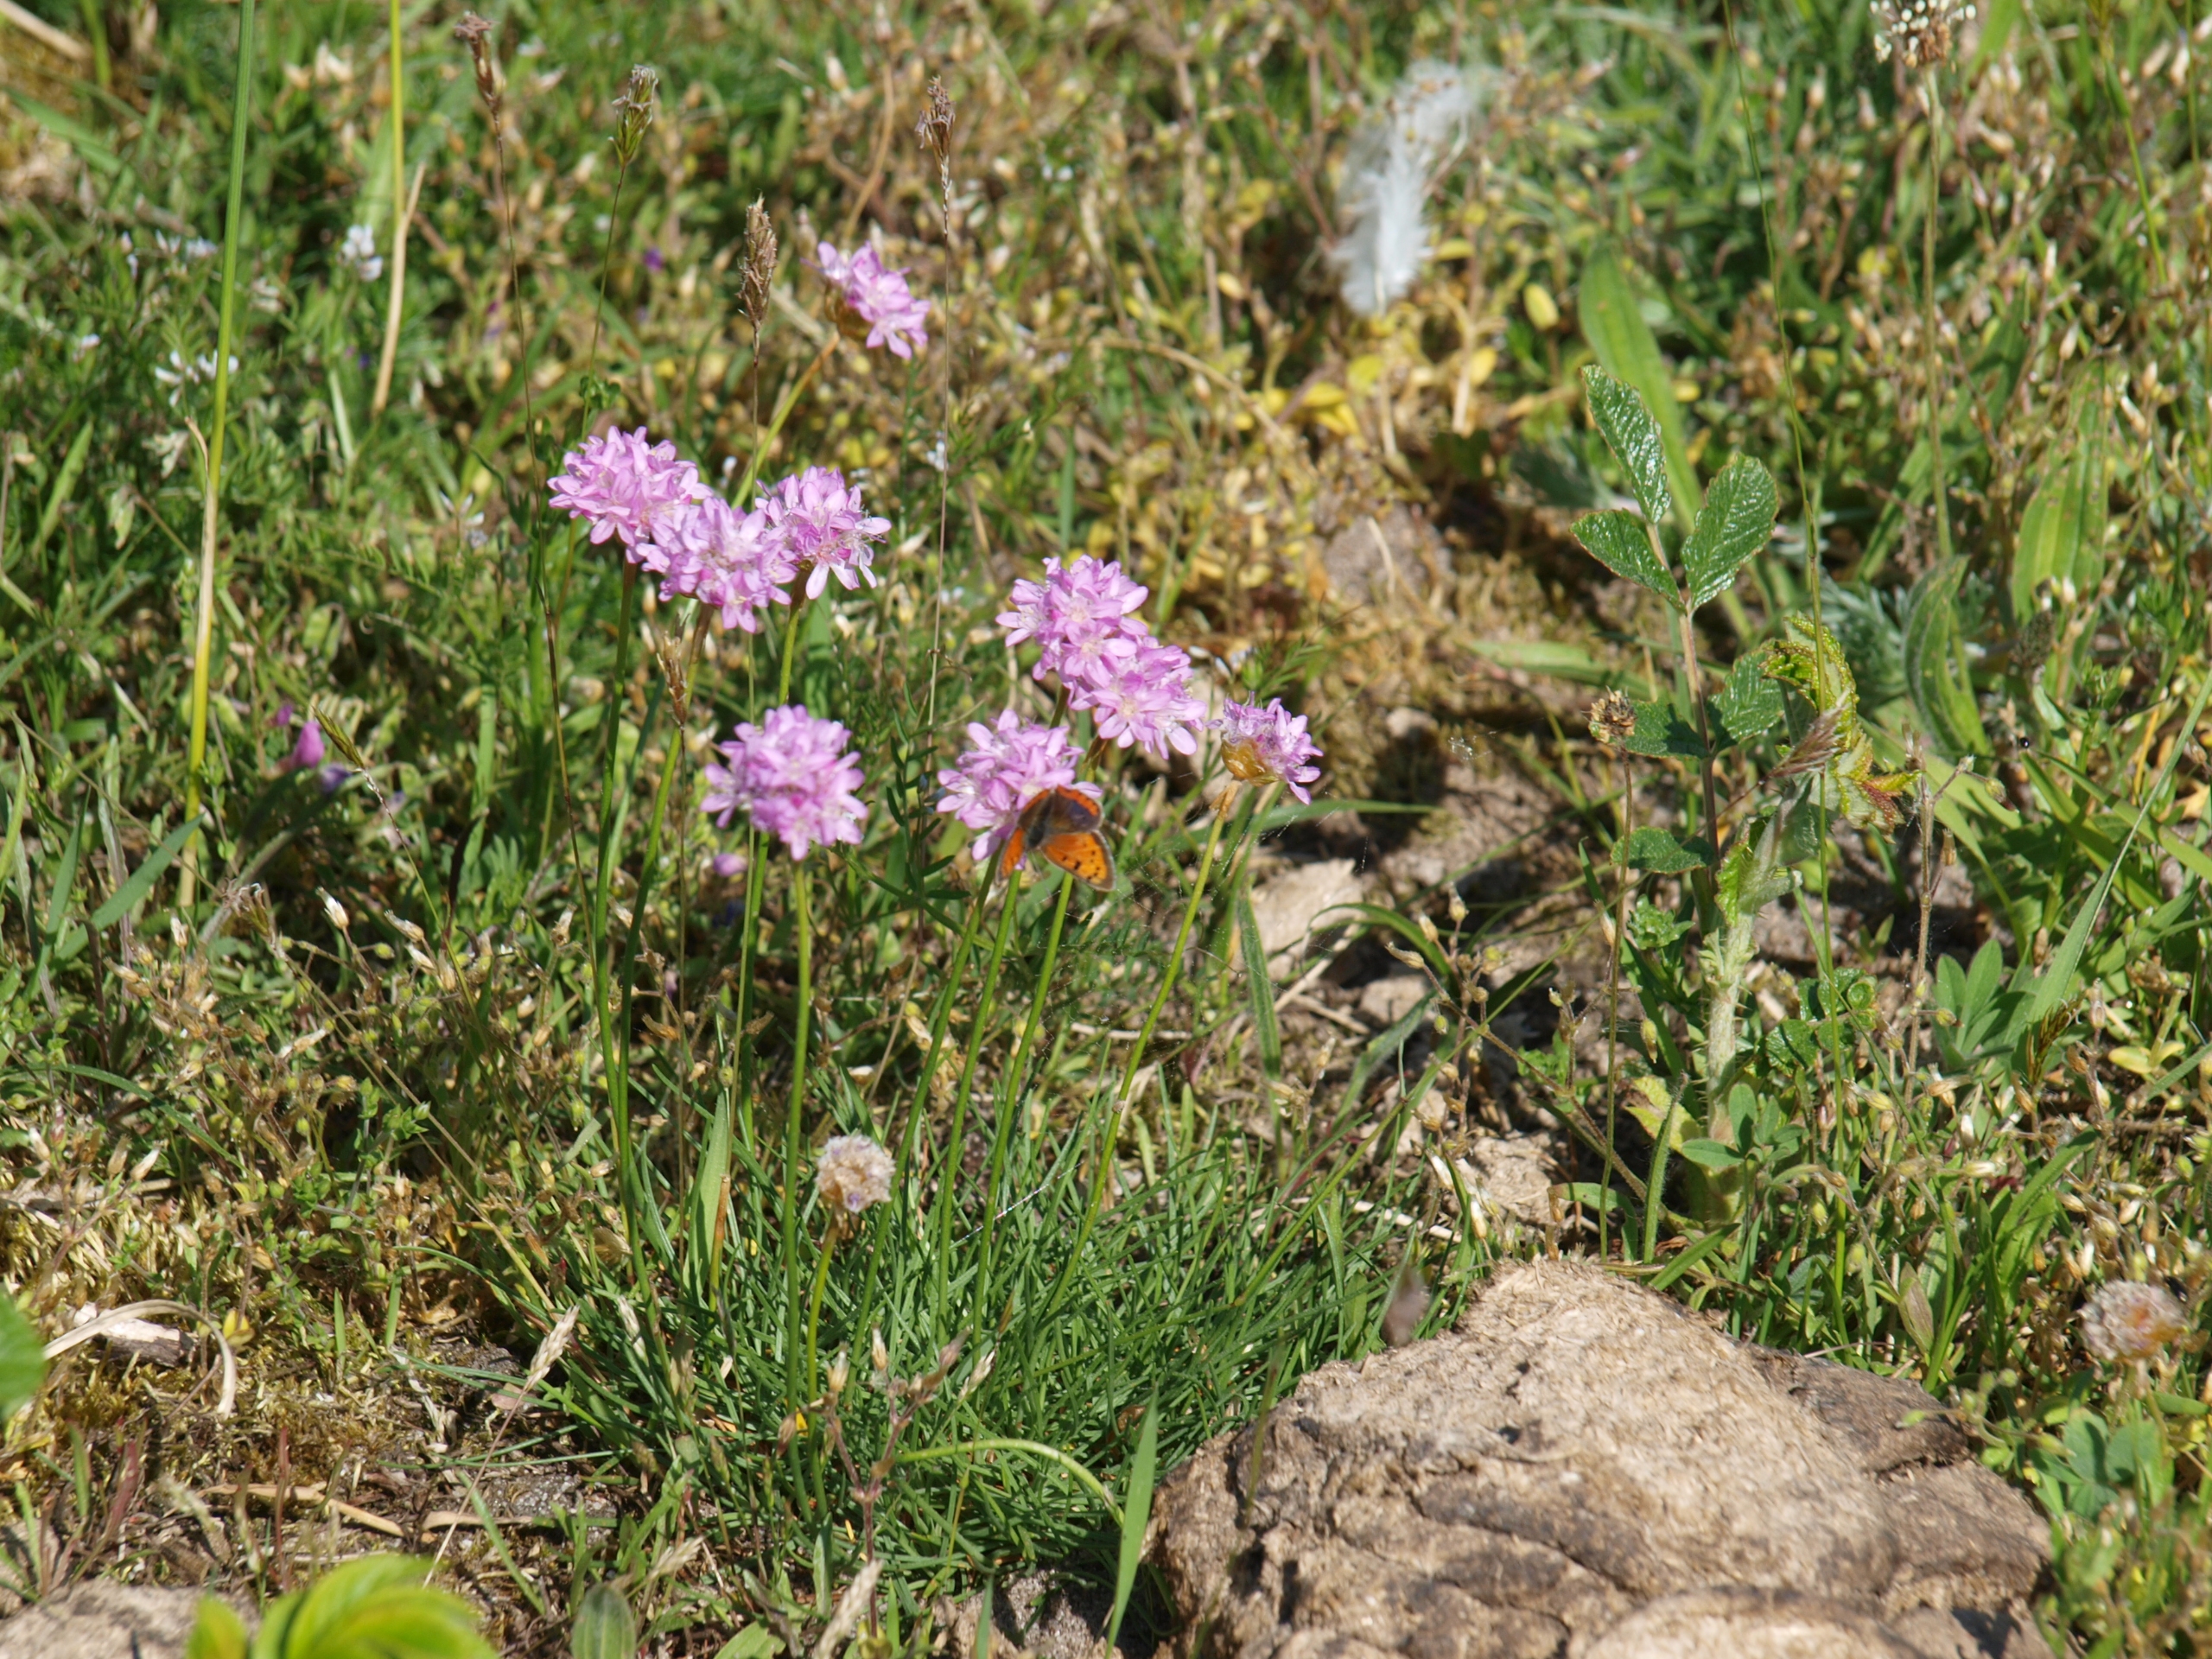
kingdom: Animalia
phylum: Arthropoda
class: Insecta
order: Lepidoptera
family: Lycaenidae
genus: Lycaena
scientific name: Lycaena phlaeas
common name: Lille ildfugl
